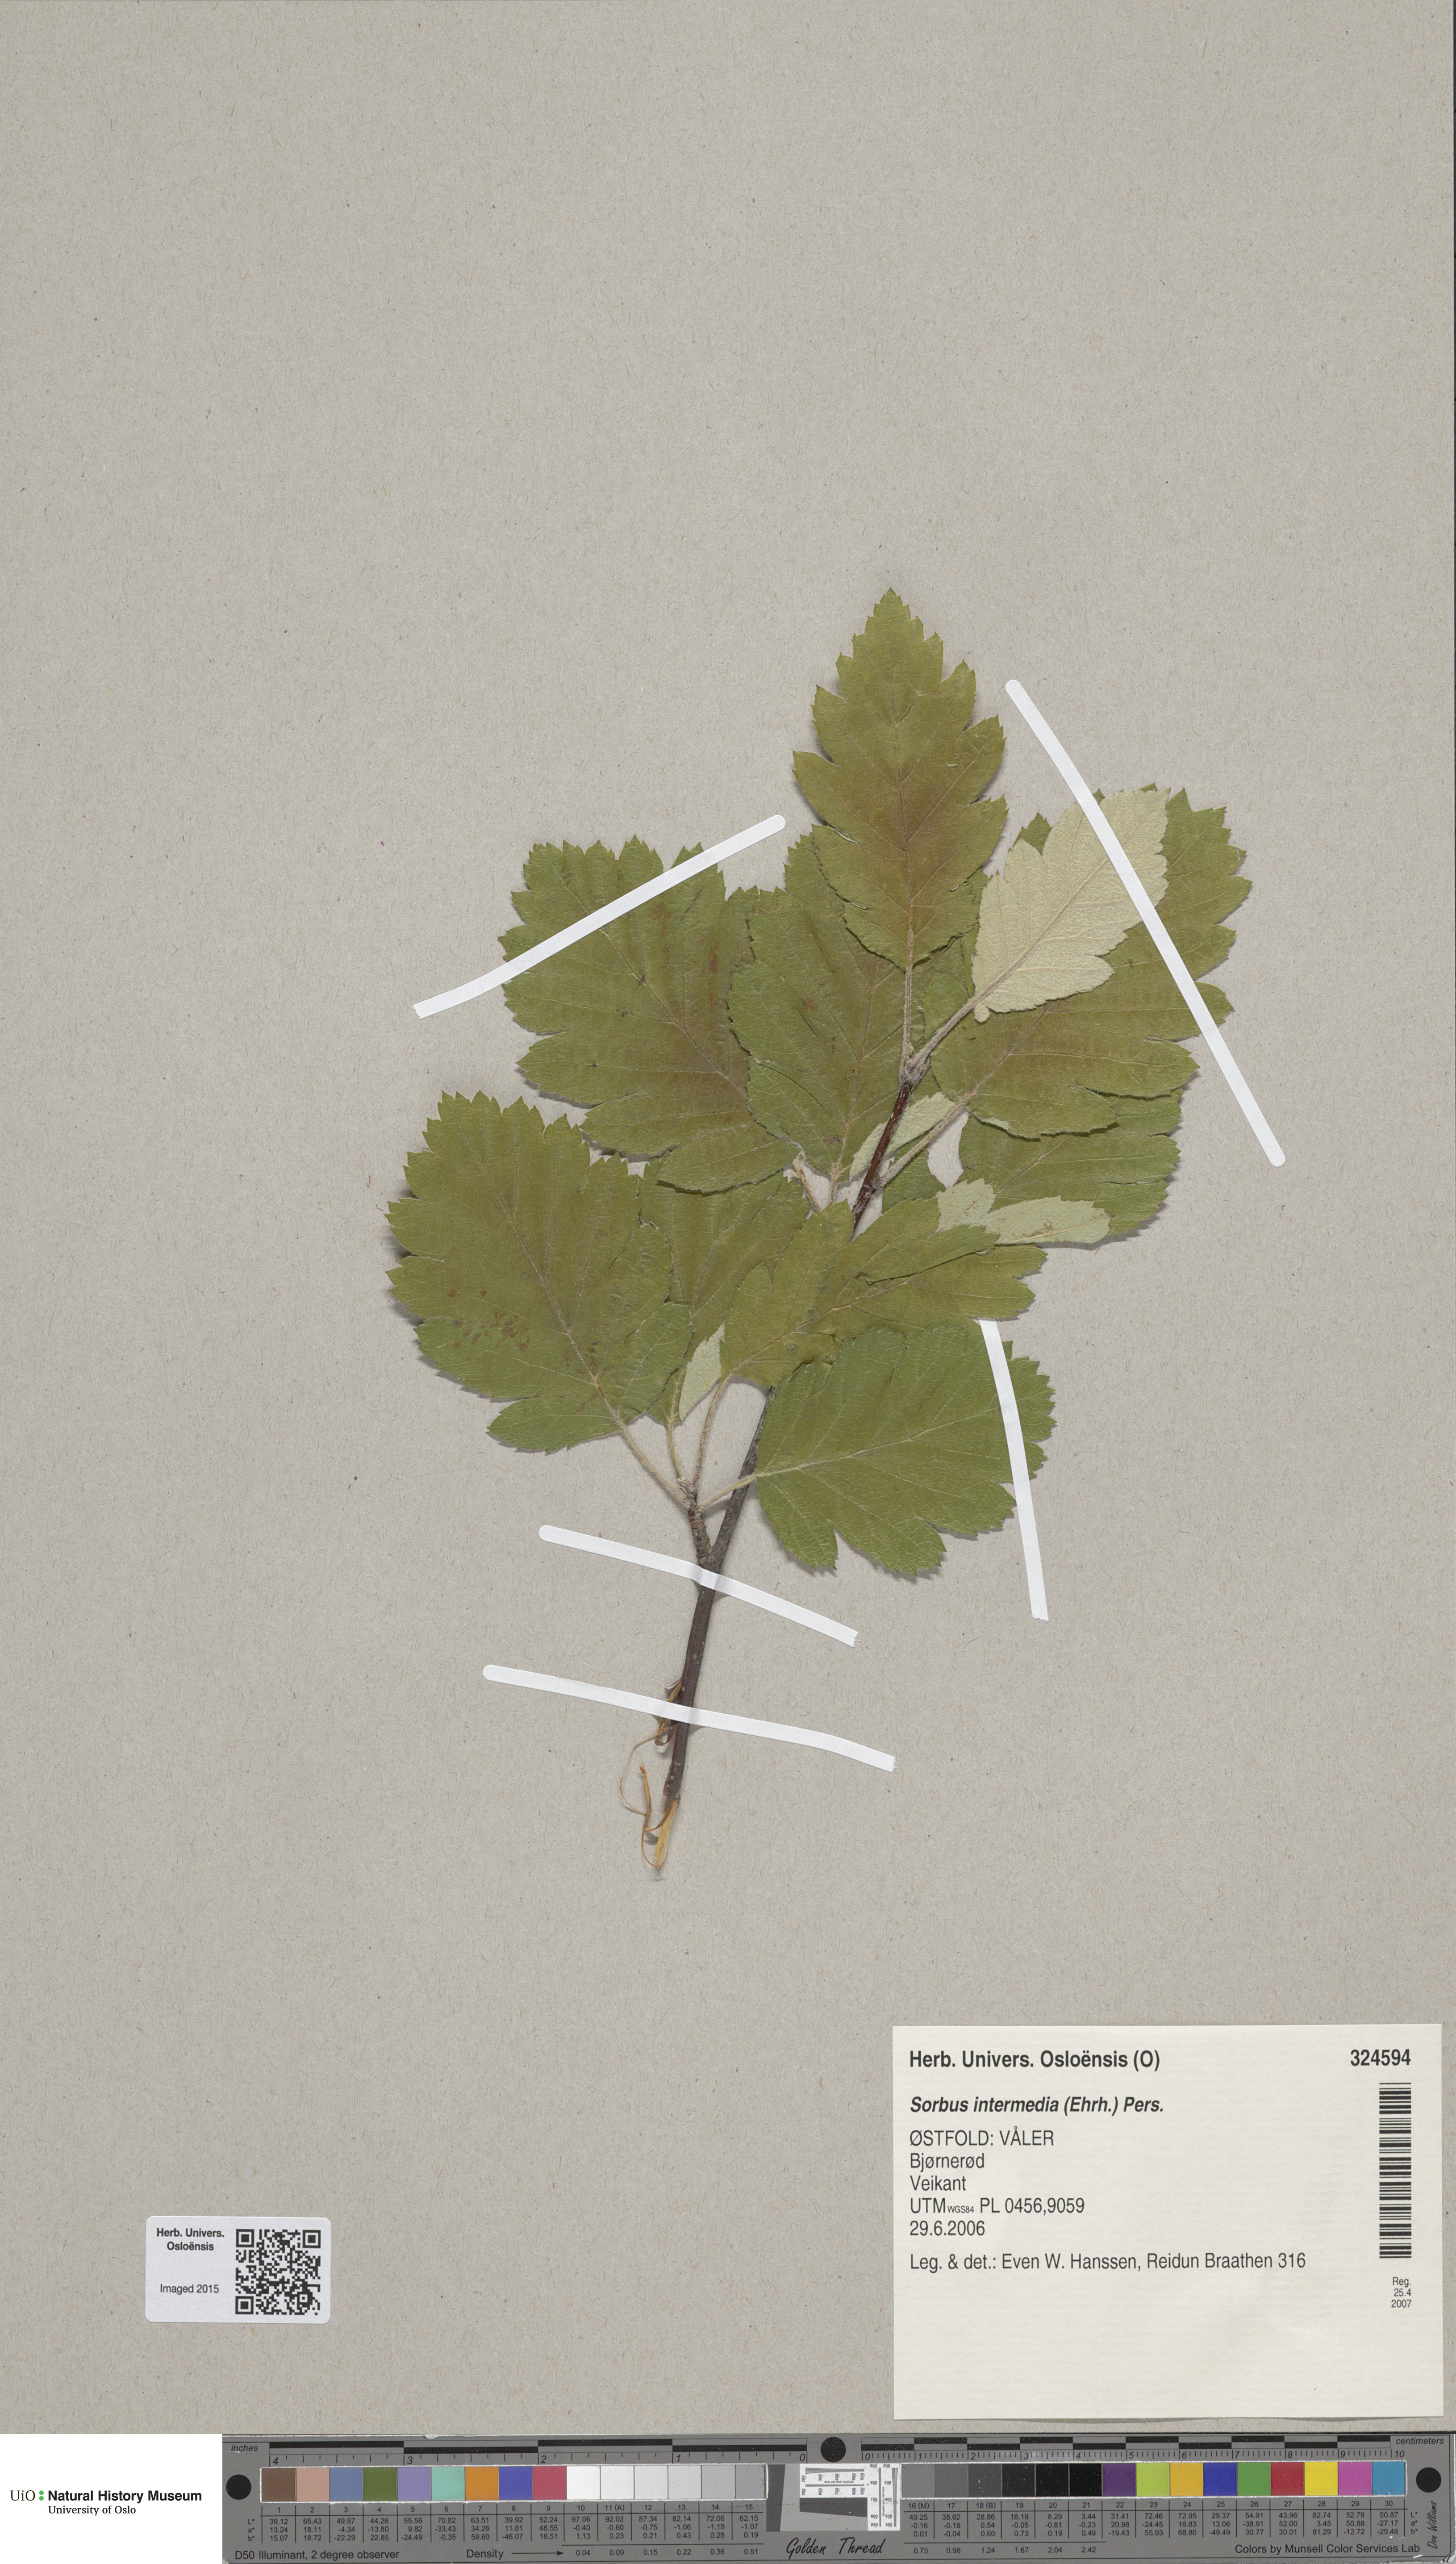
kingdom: Plantae
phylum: Tracheophyta
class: Magnoliopsida
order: Rosales
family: Rosaceae
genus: Scandosorbus
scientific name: Scandosorbus intermedia
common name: Swedish whitebeam
